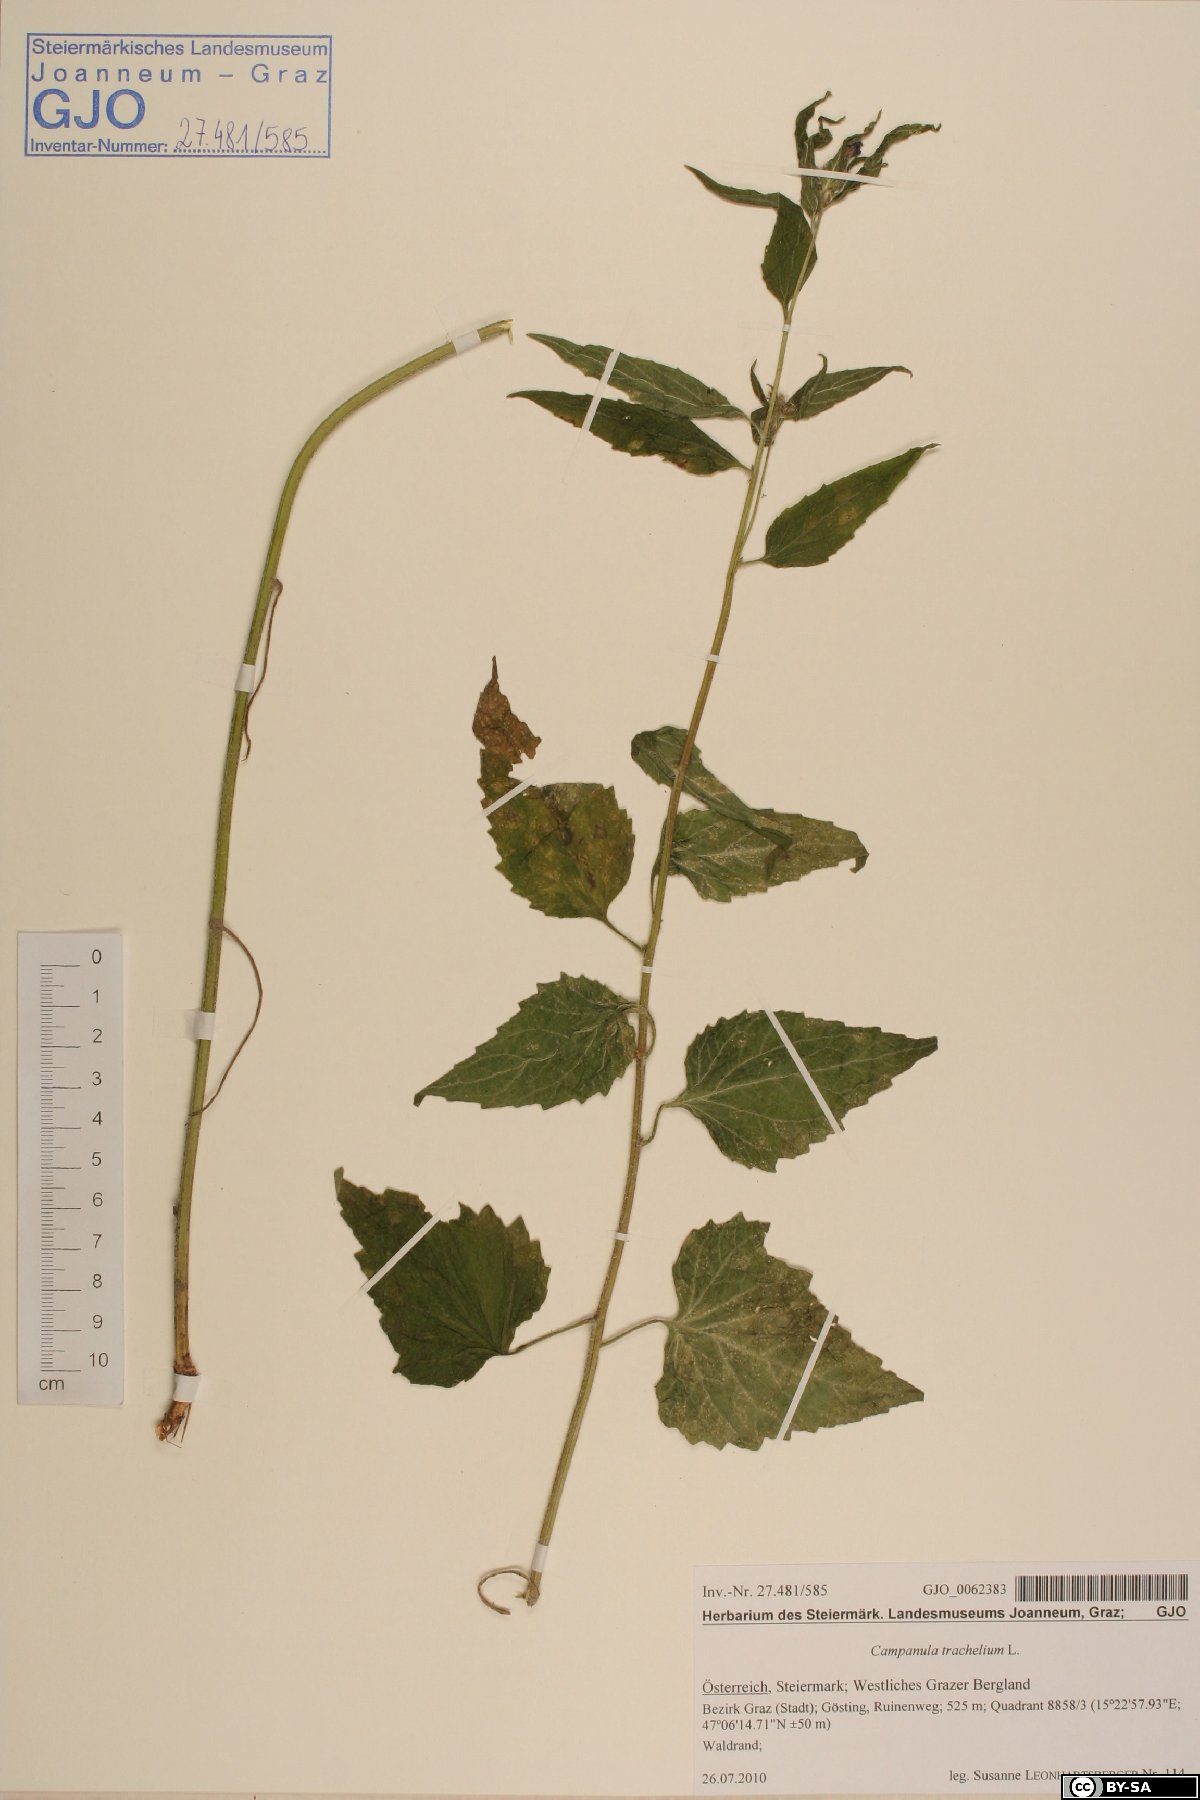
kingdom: Plantae
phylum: Tracheophyta
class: Magnoliopsida
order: Asterales
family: Campanulaceae
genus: Campanula
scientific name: Campanula trachelium
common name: Nettle-leaved bellflower
